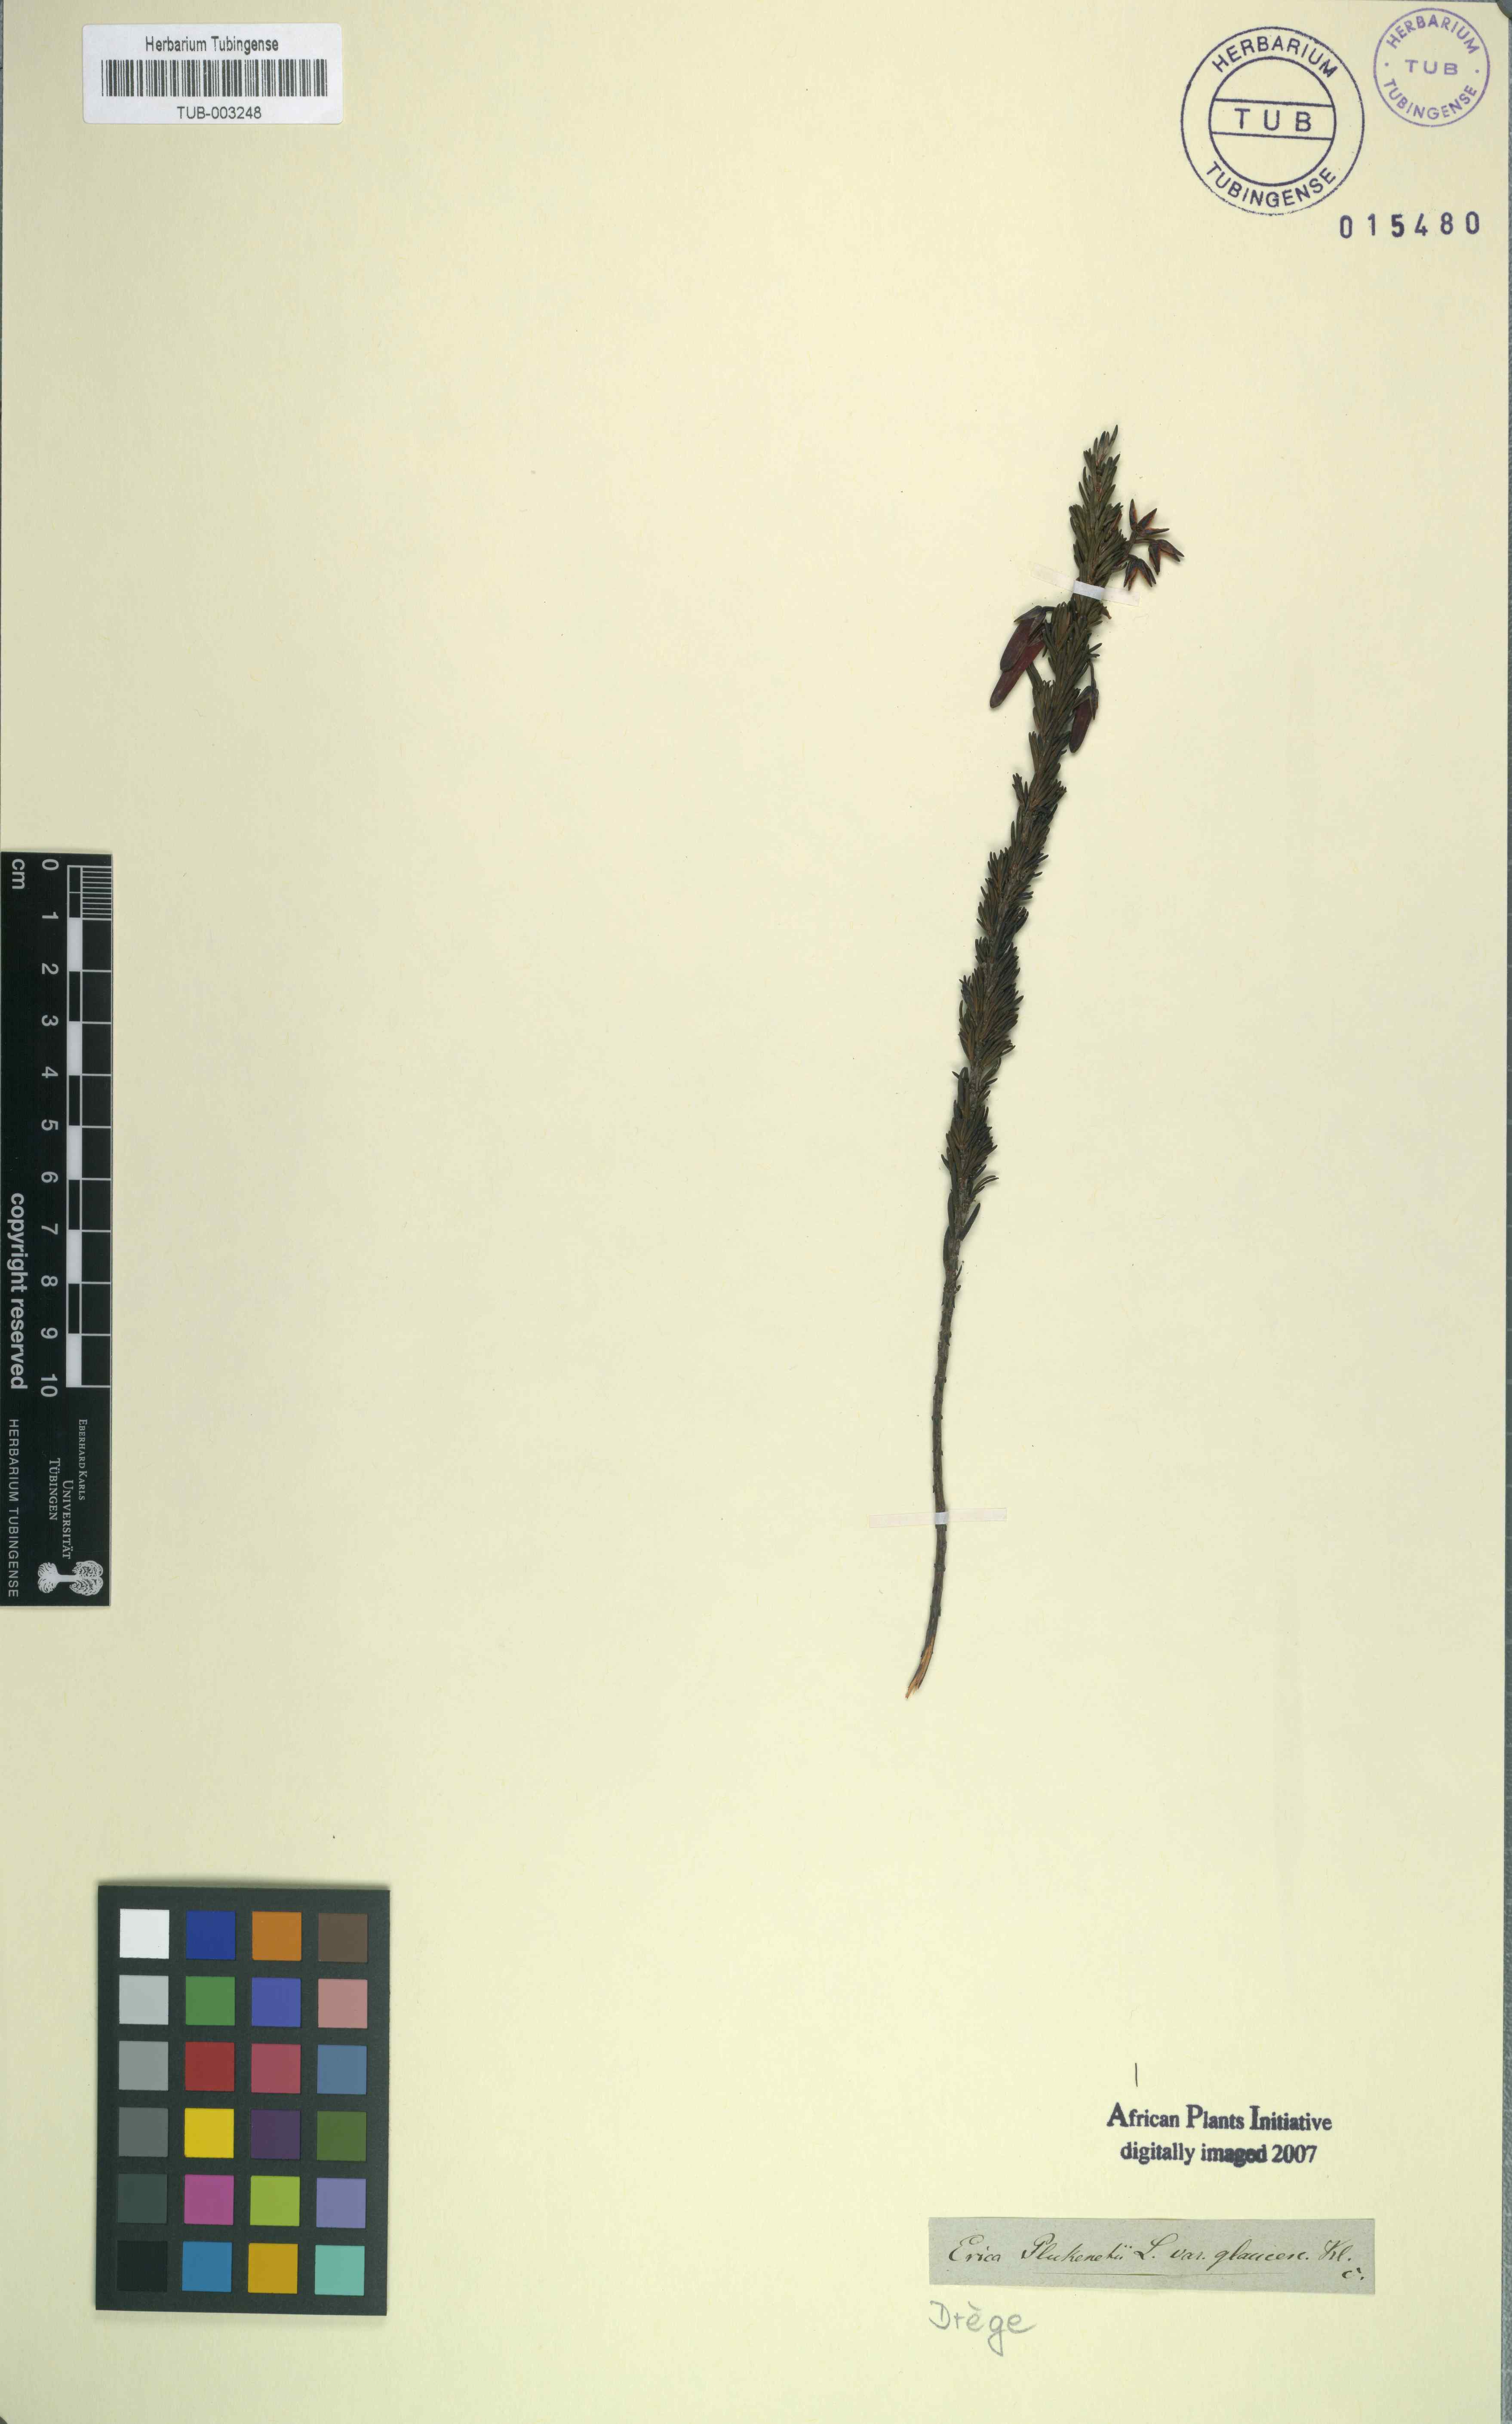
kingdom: Plantae
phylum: Tracheophyta
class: Magnoliopsida
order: Ericales
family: Ericaceae
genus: Erica
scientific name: Erica coccinea
